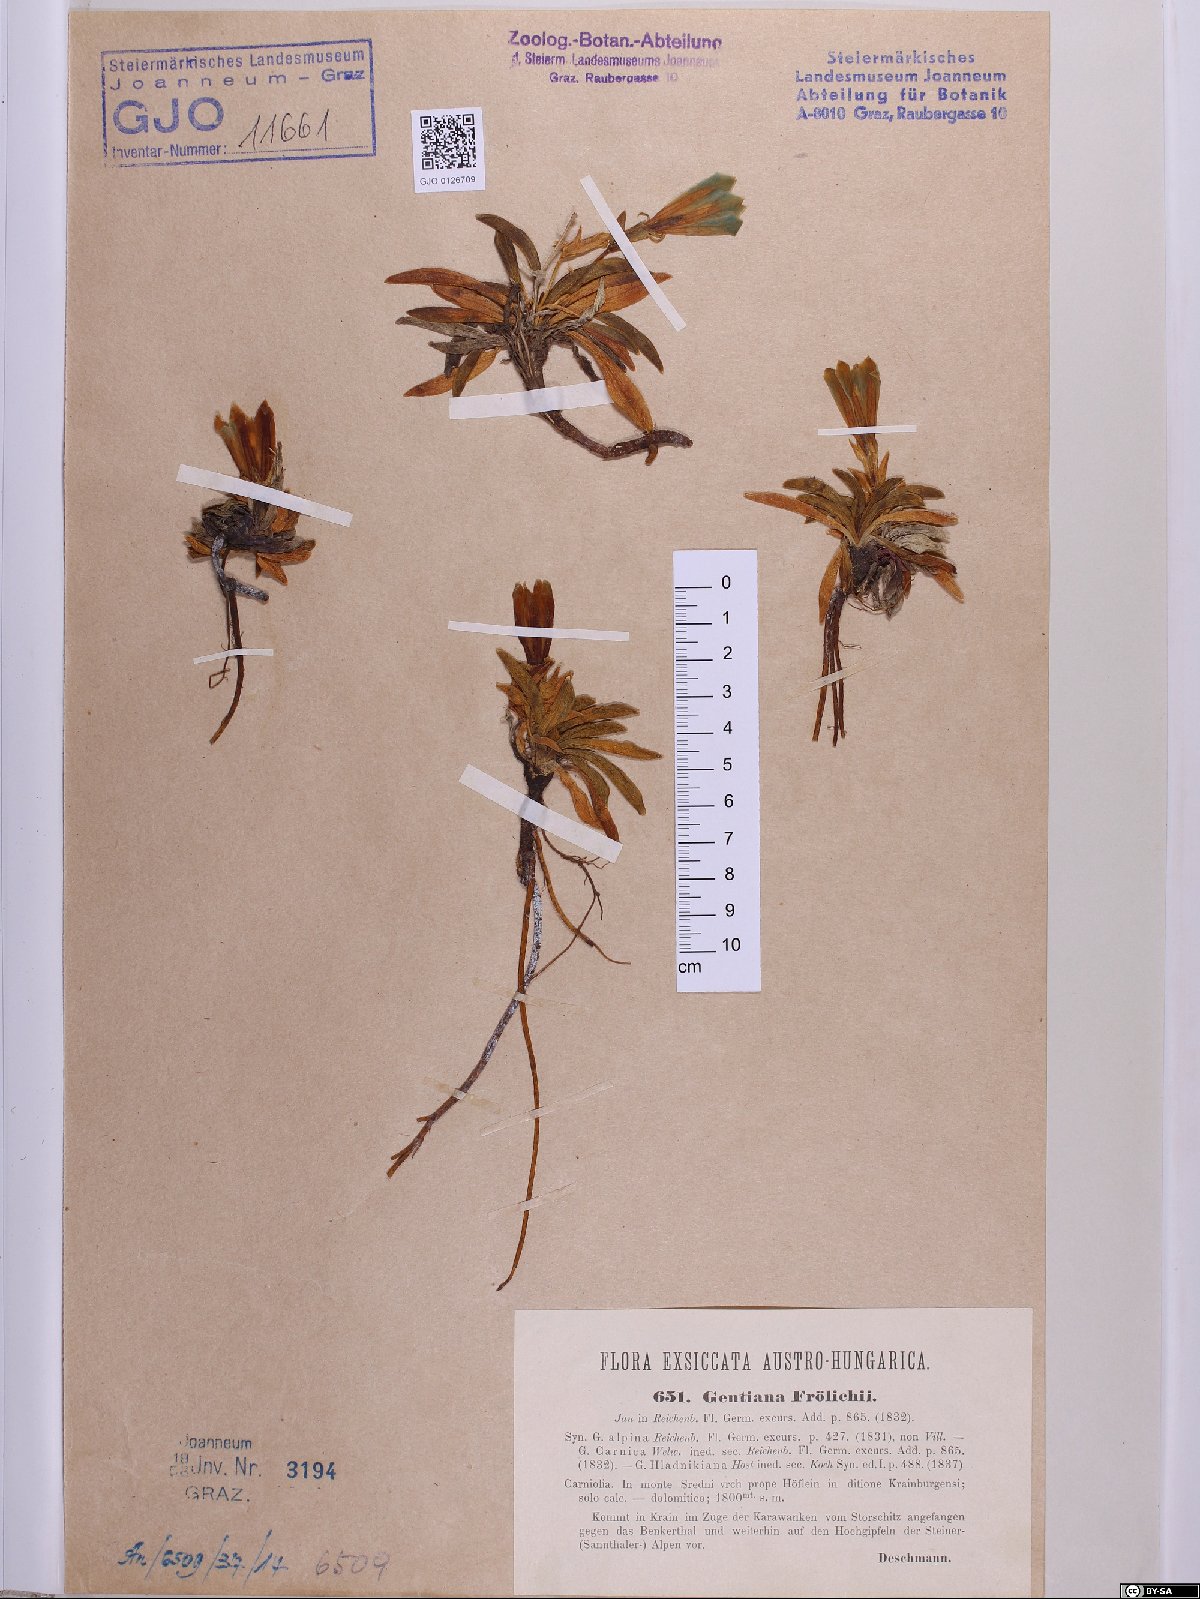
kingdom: Plantae
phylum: Tracheophyta
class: Magnoliopsida
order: Gentianales
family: Gentianaceae
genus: Gentiana
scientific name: Gentiana froelichii
